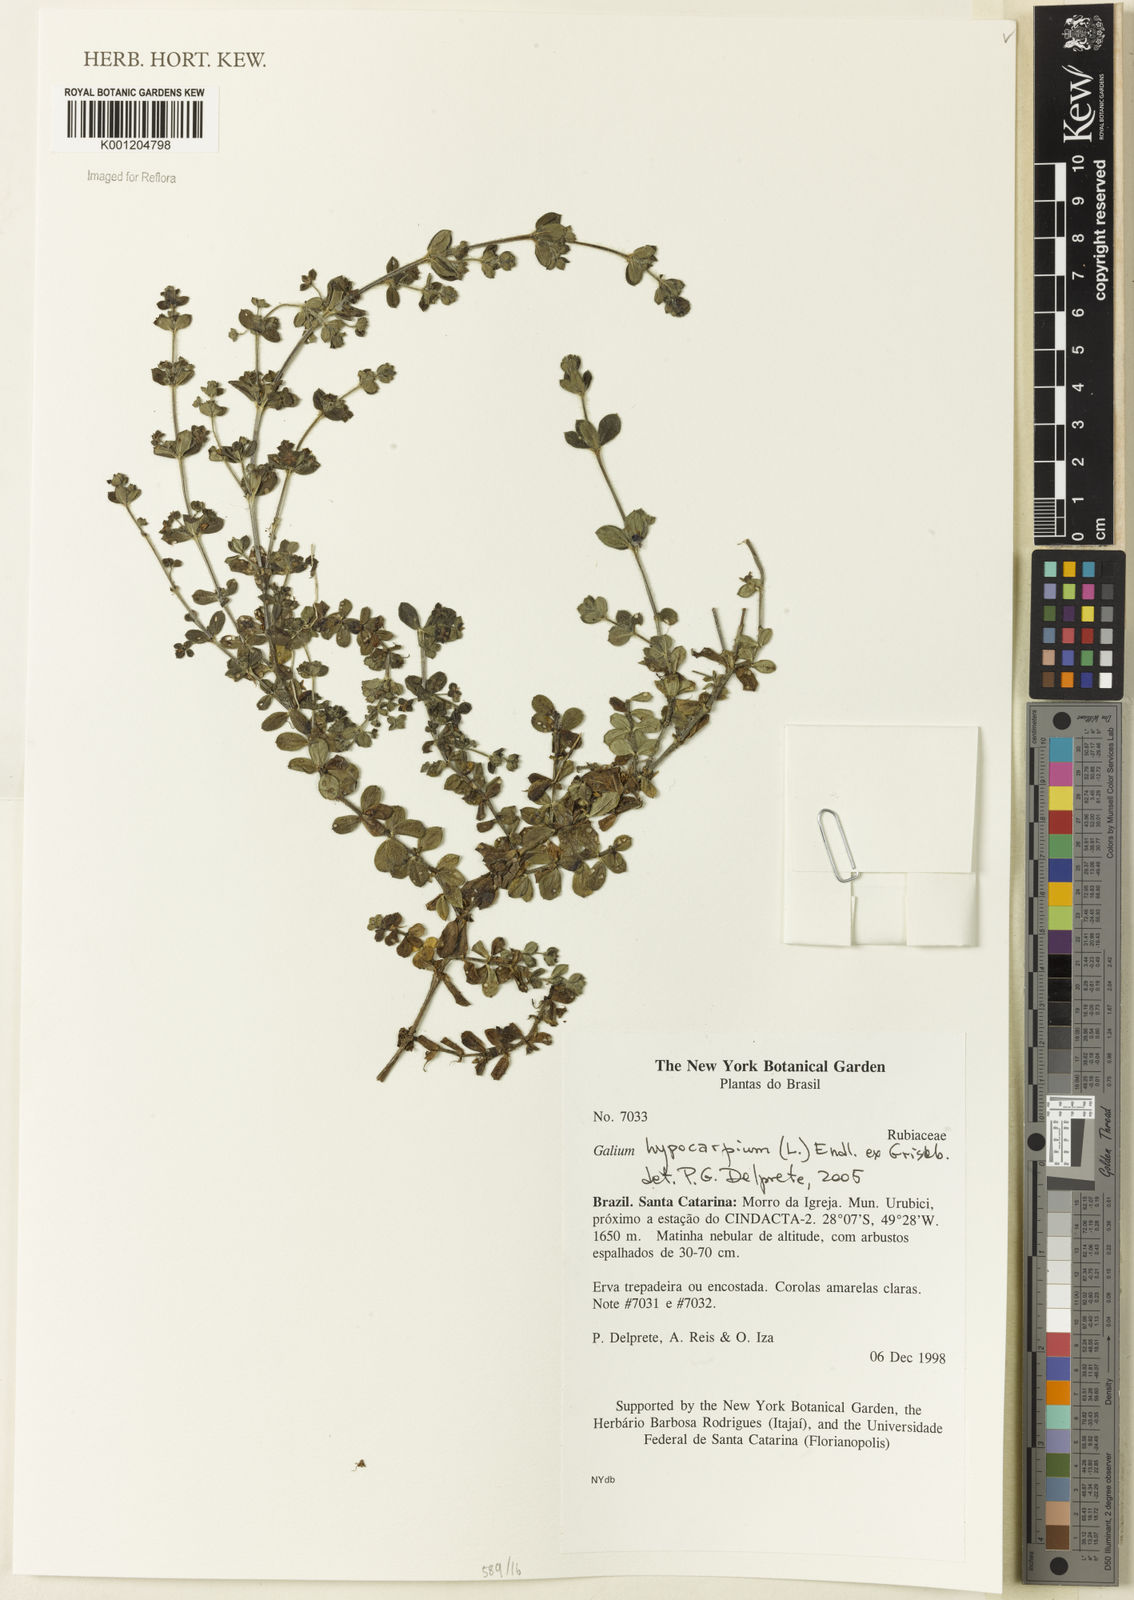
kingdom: Plantae
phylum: Tracheophyta
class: Magnoliopsida
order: Gentianales
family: Rubiaceae
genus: Galium
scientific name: Galium hypocarpium
